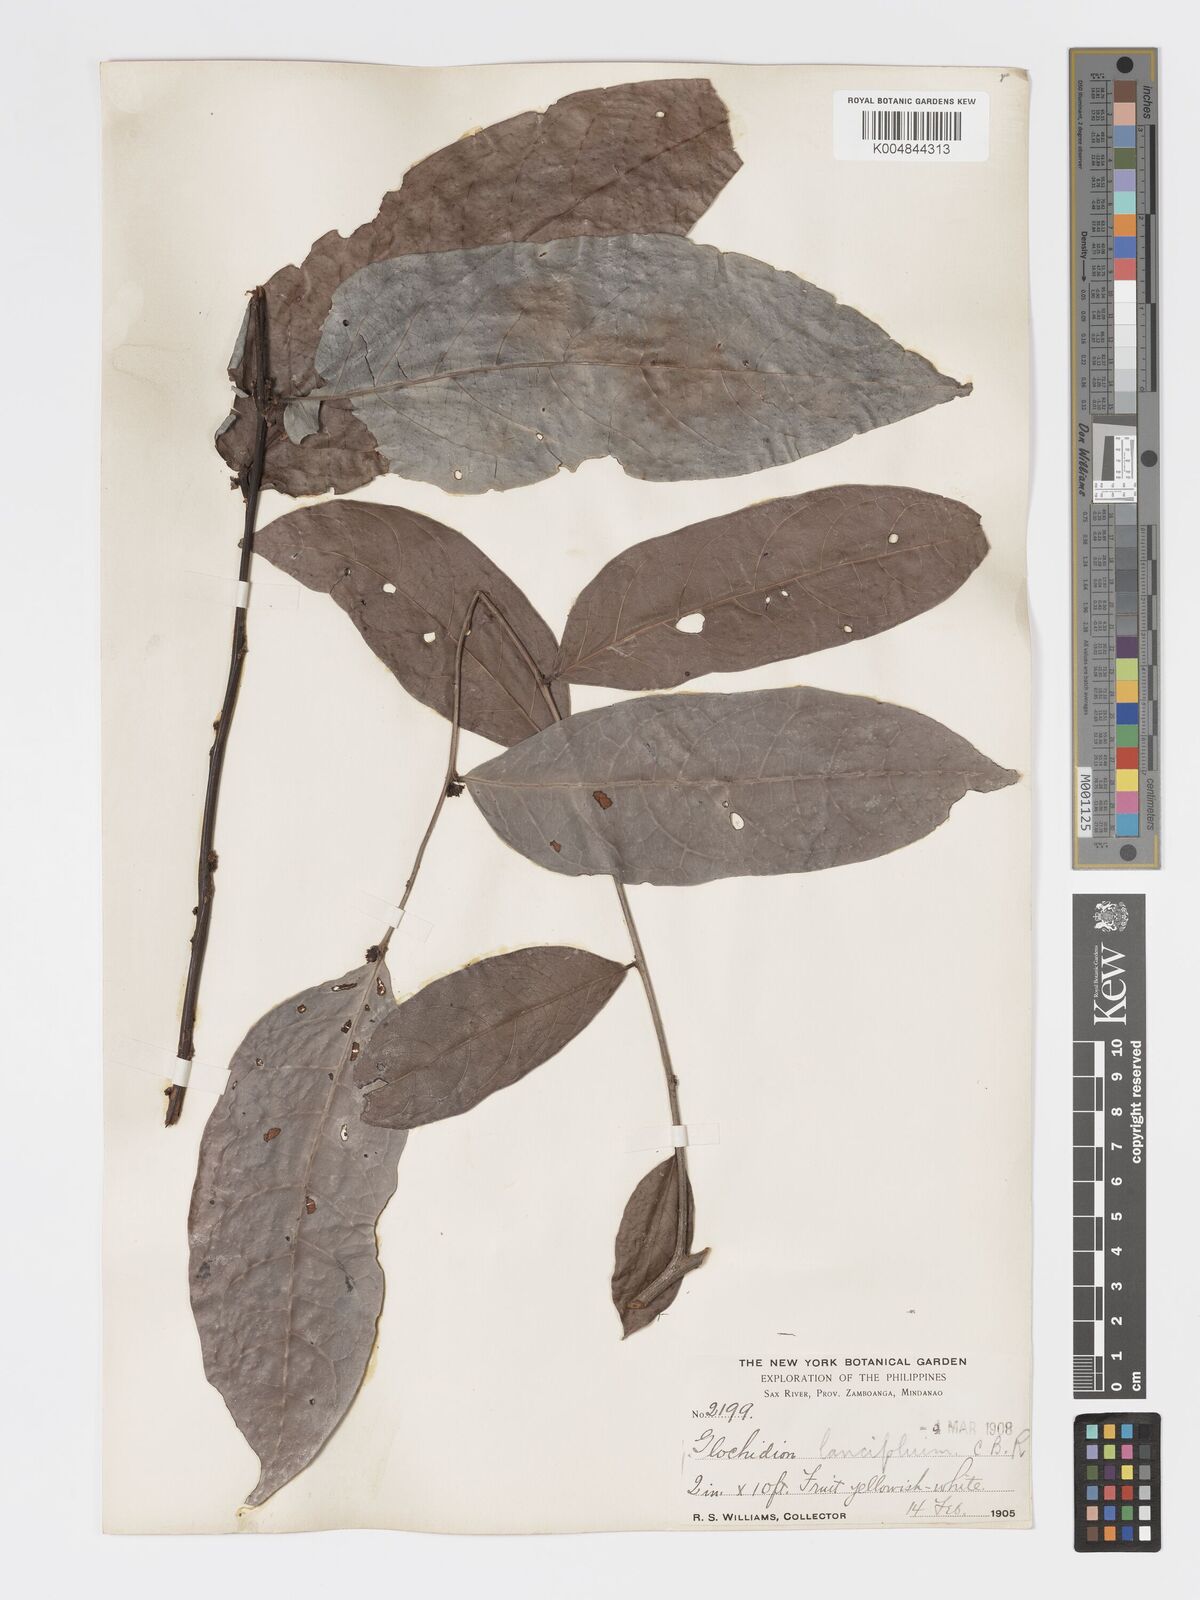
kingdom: Plantae
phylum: Tracheophyta
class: Magnoliopsida
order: Malpighiales
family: Phyllanthaceae
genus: Glochidion
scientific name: Glochidion urophylloides
